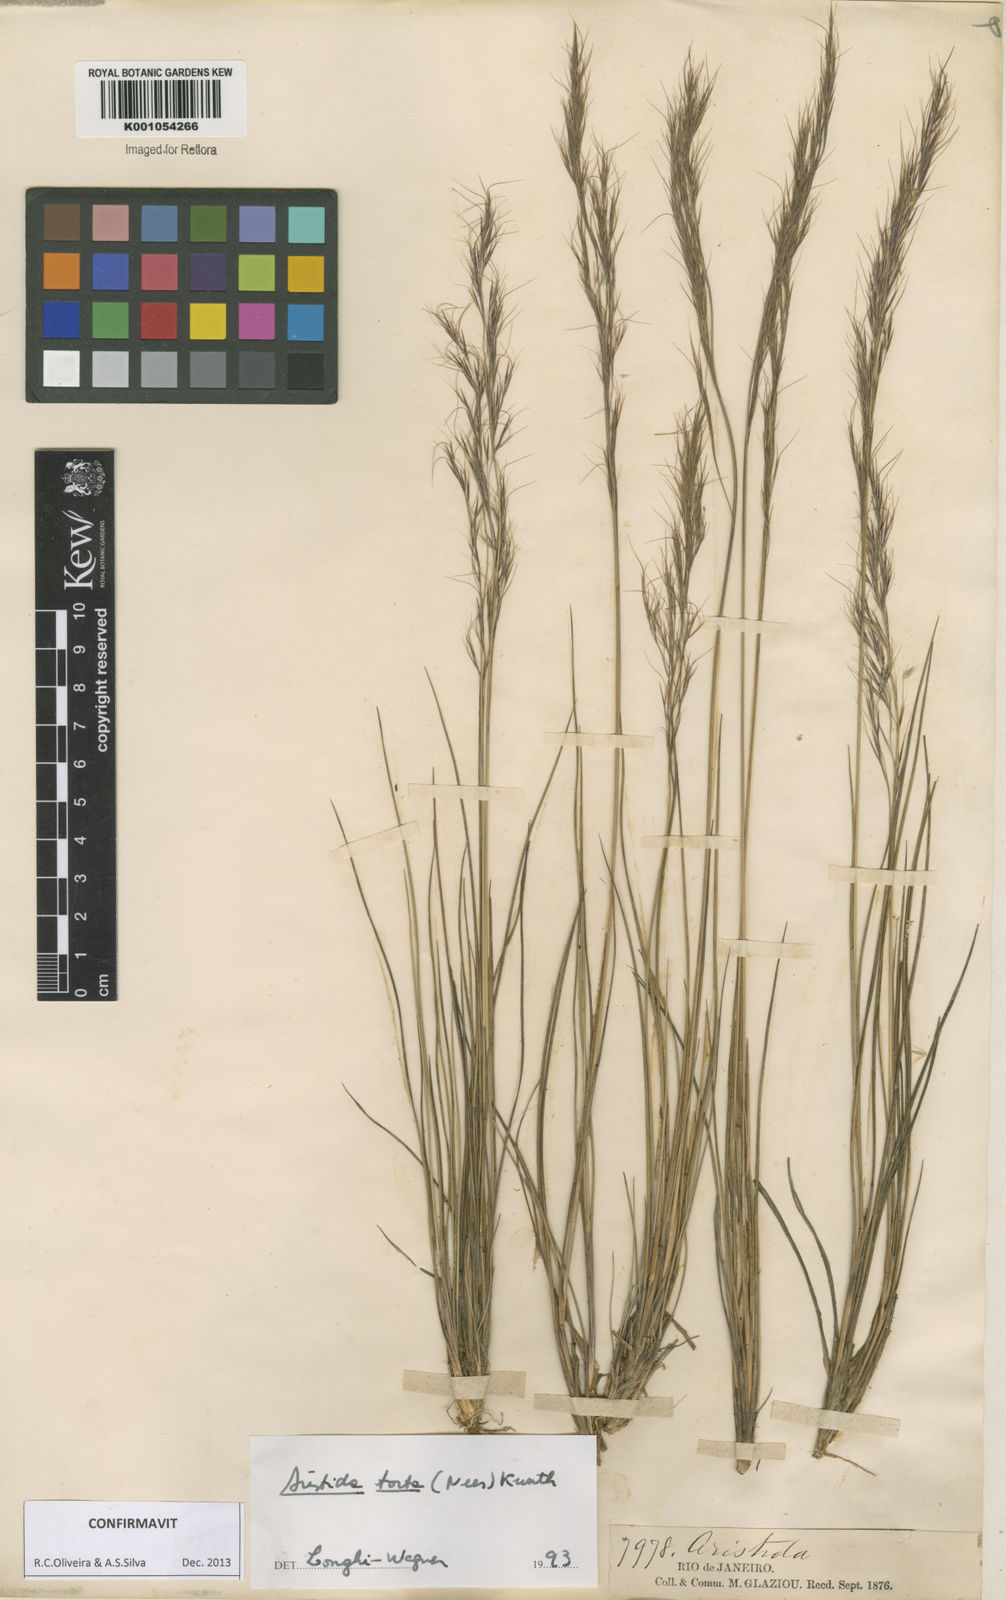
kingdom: Plantae
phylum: Tracheophyta
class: Liliopsida
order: Poales
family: Poaceae
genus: Aristida
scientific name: Aristida torta
